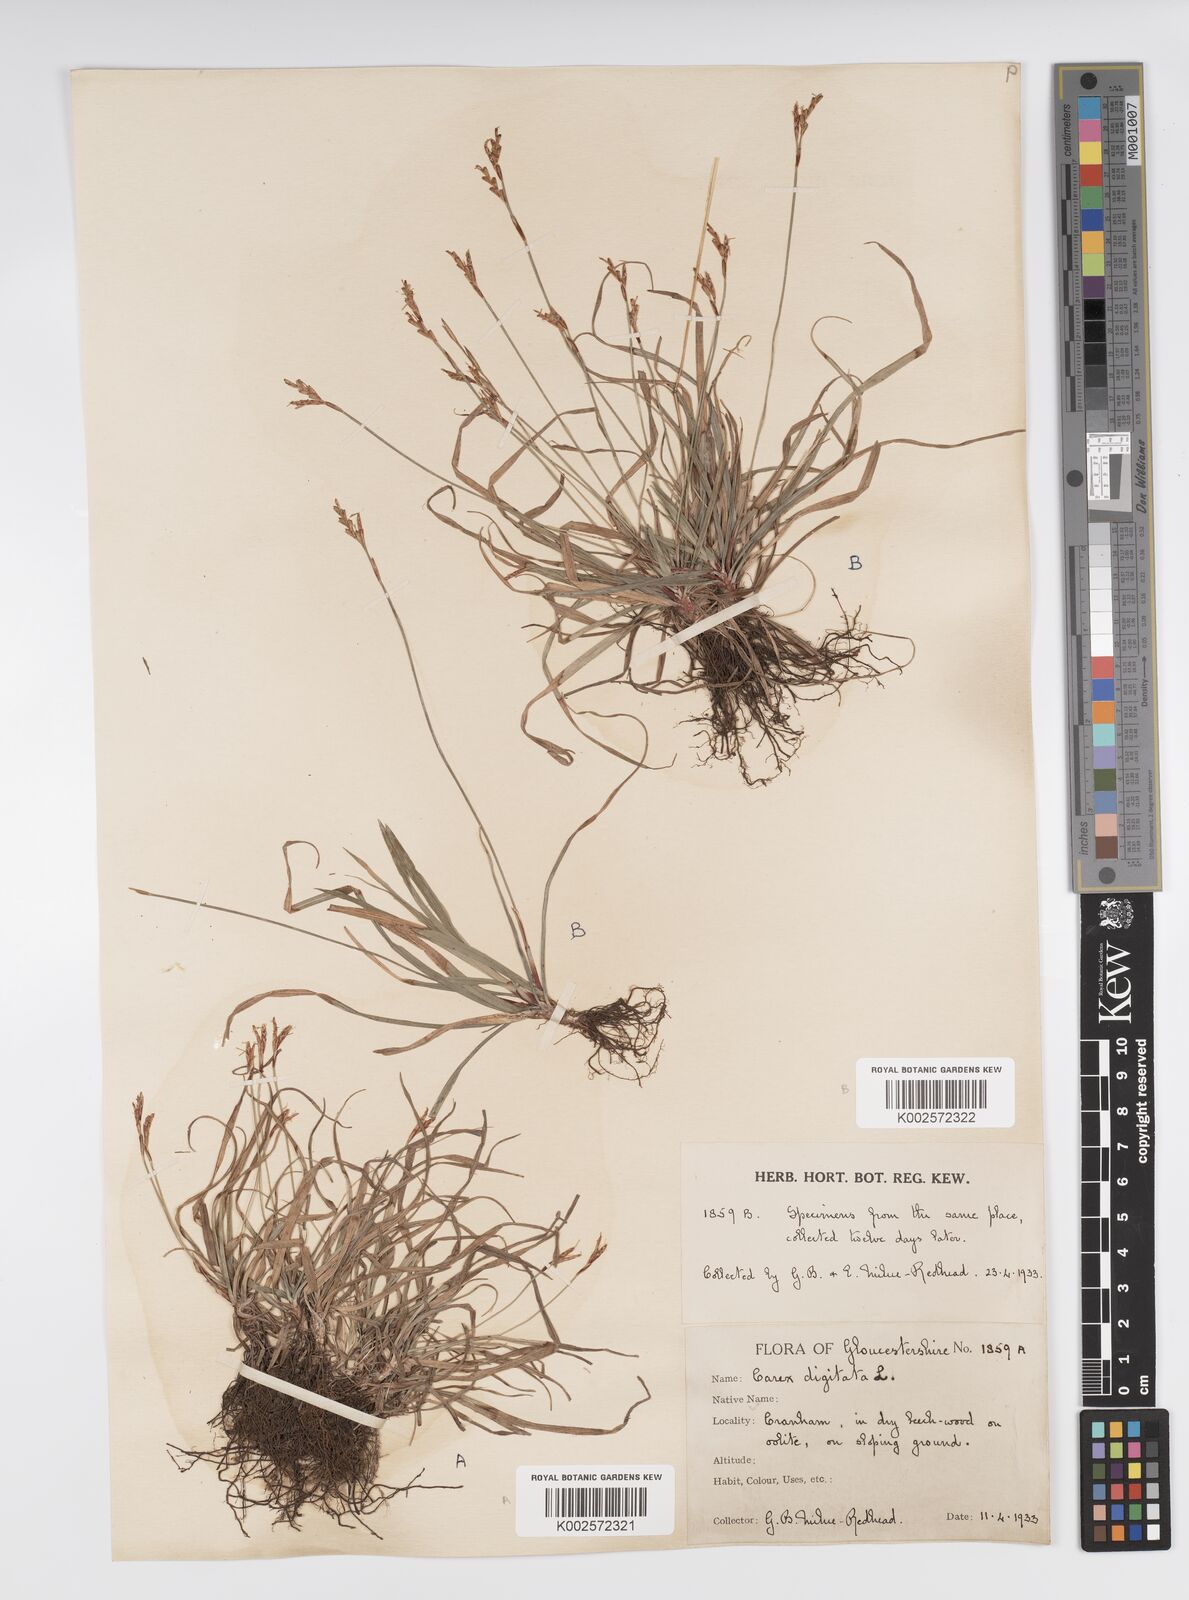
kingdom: Plantae
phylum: Tracheophyta
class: Liliopsida
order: Poales
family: Cyperaceae
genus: Carex
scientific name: Carex digitata
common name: Fingered sedge
